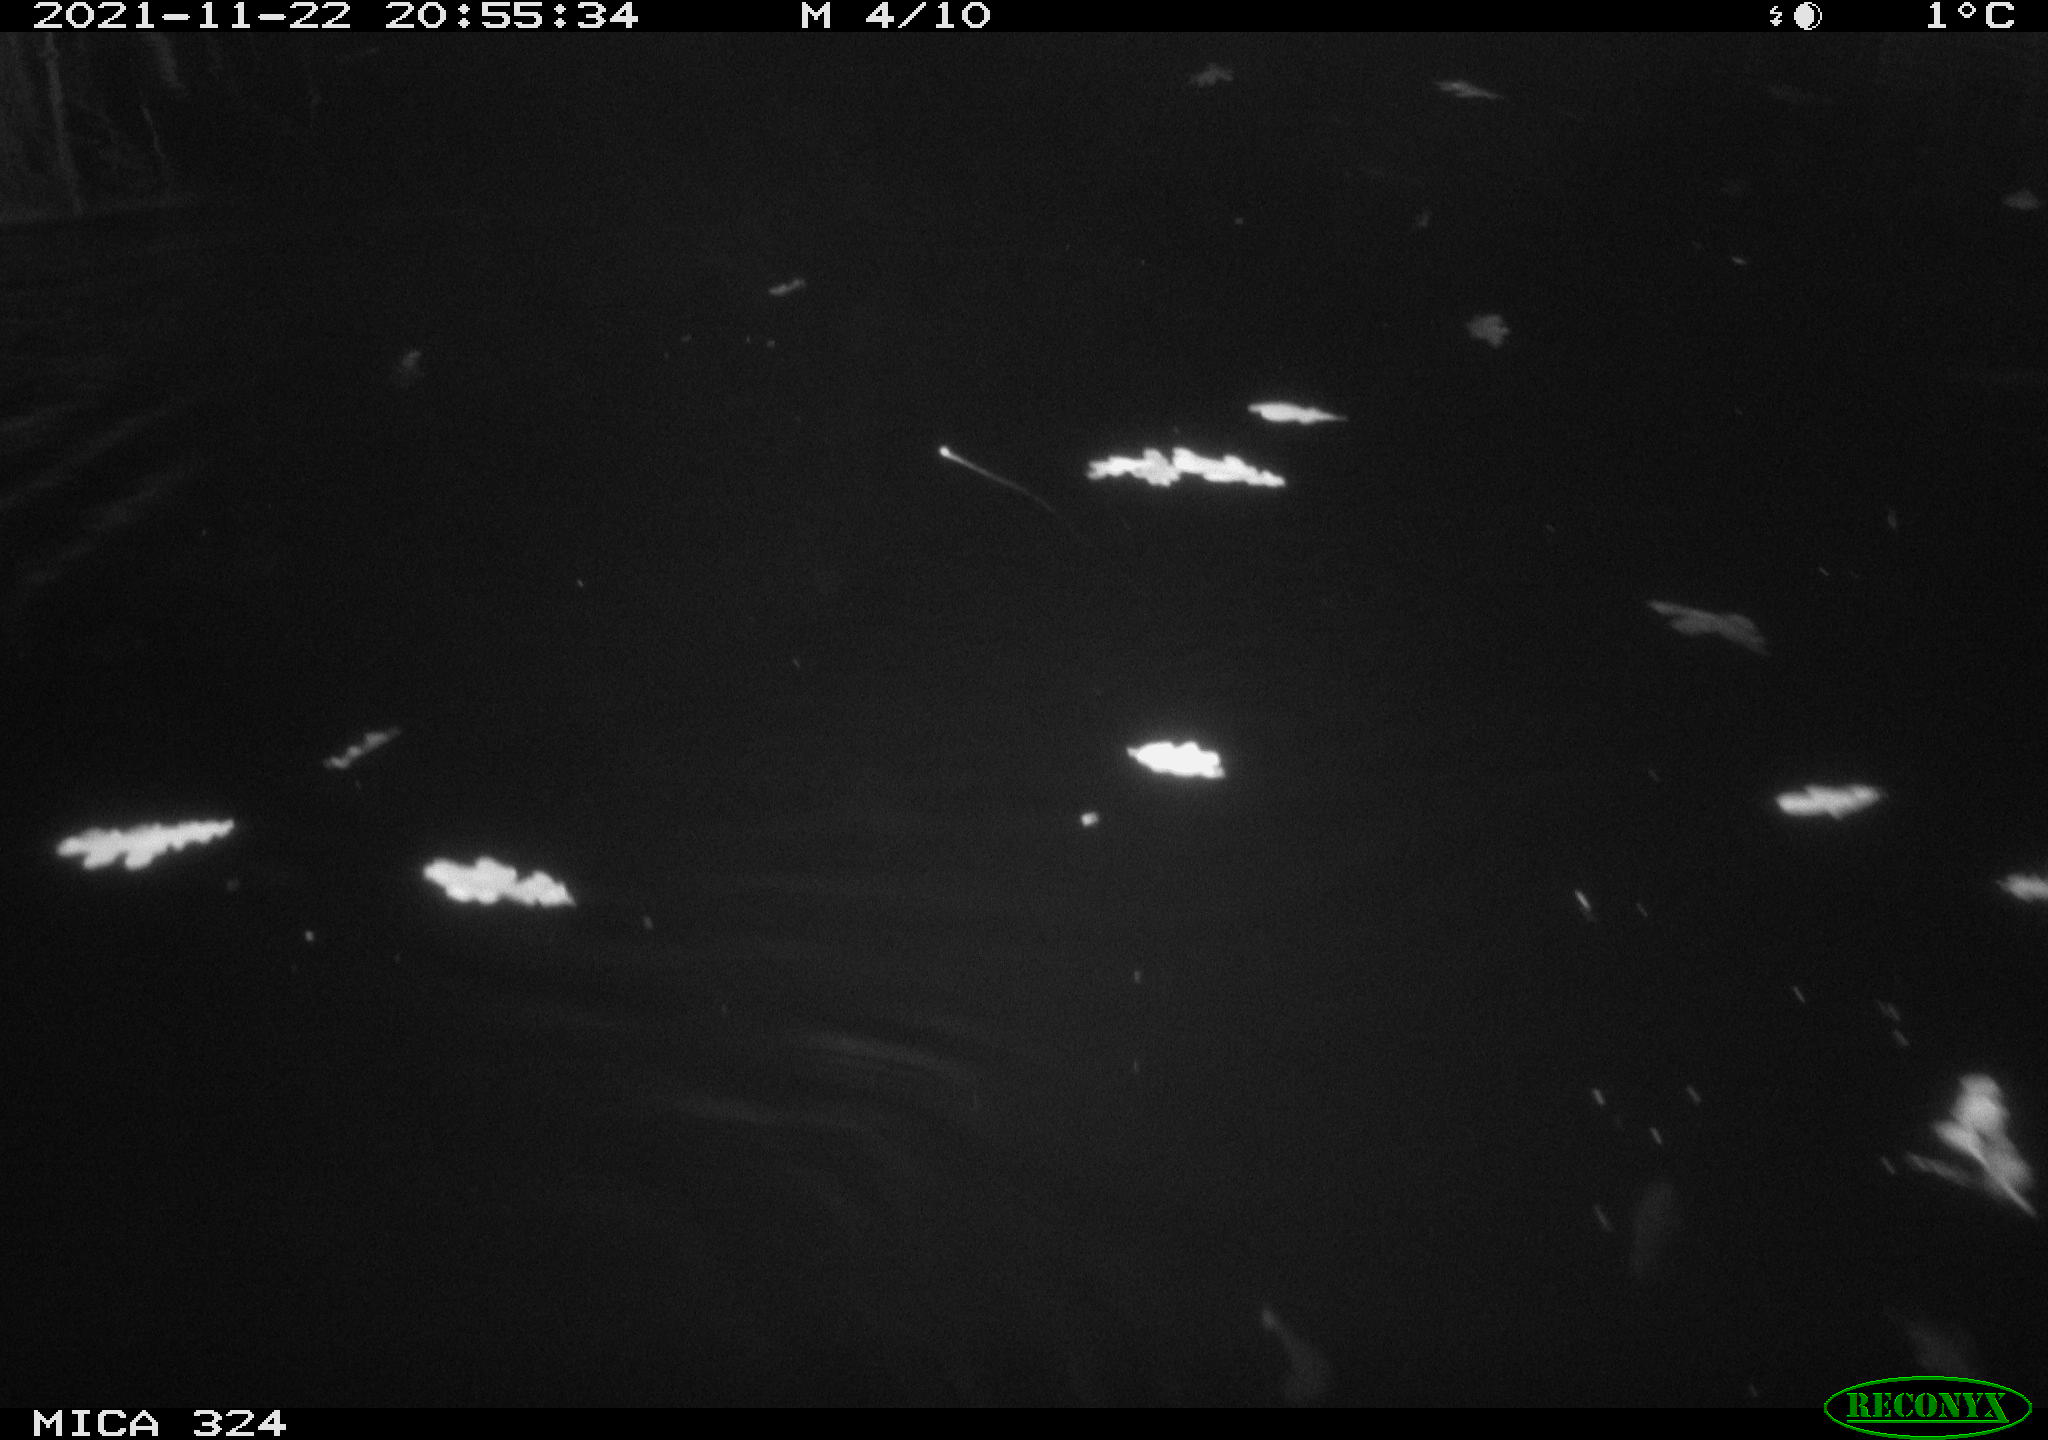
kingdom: Animalia
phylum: Chordata
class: Mammalia
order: Rodentia
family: Cricetidae
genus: Ondatra
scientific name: Ondatra zibethicus
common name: Muskrat
